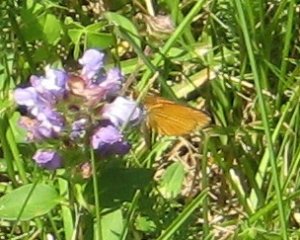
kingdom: Animalia
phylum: Arthropoda
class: Insecta
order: Lepidoptera
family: Hesperiidae
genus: Ancyloxypha
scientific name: Ancyloxypha numitor
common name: Least Skipper
